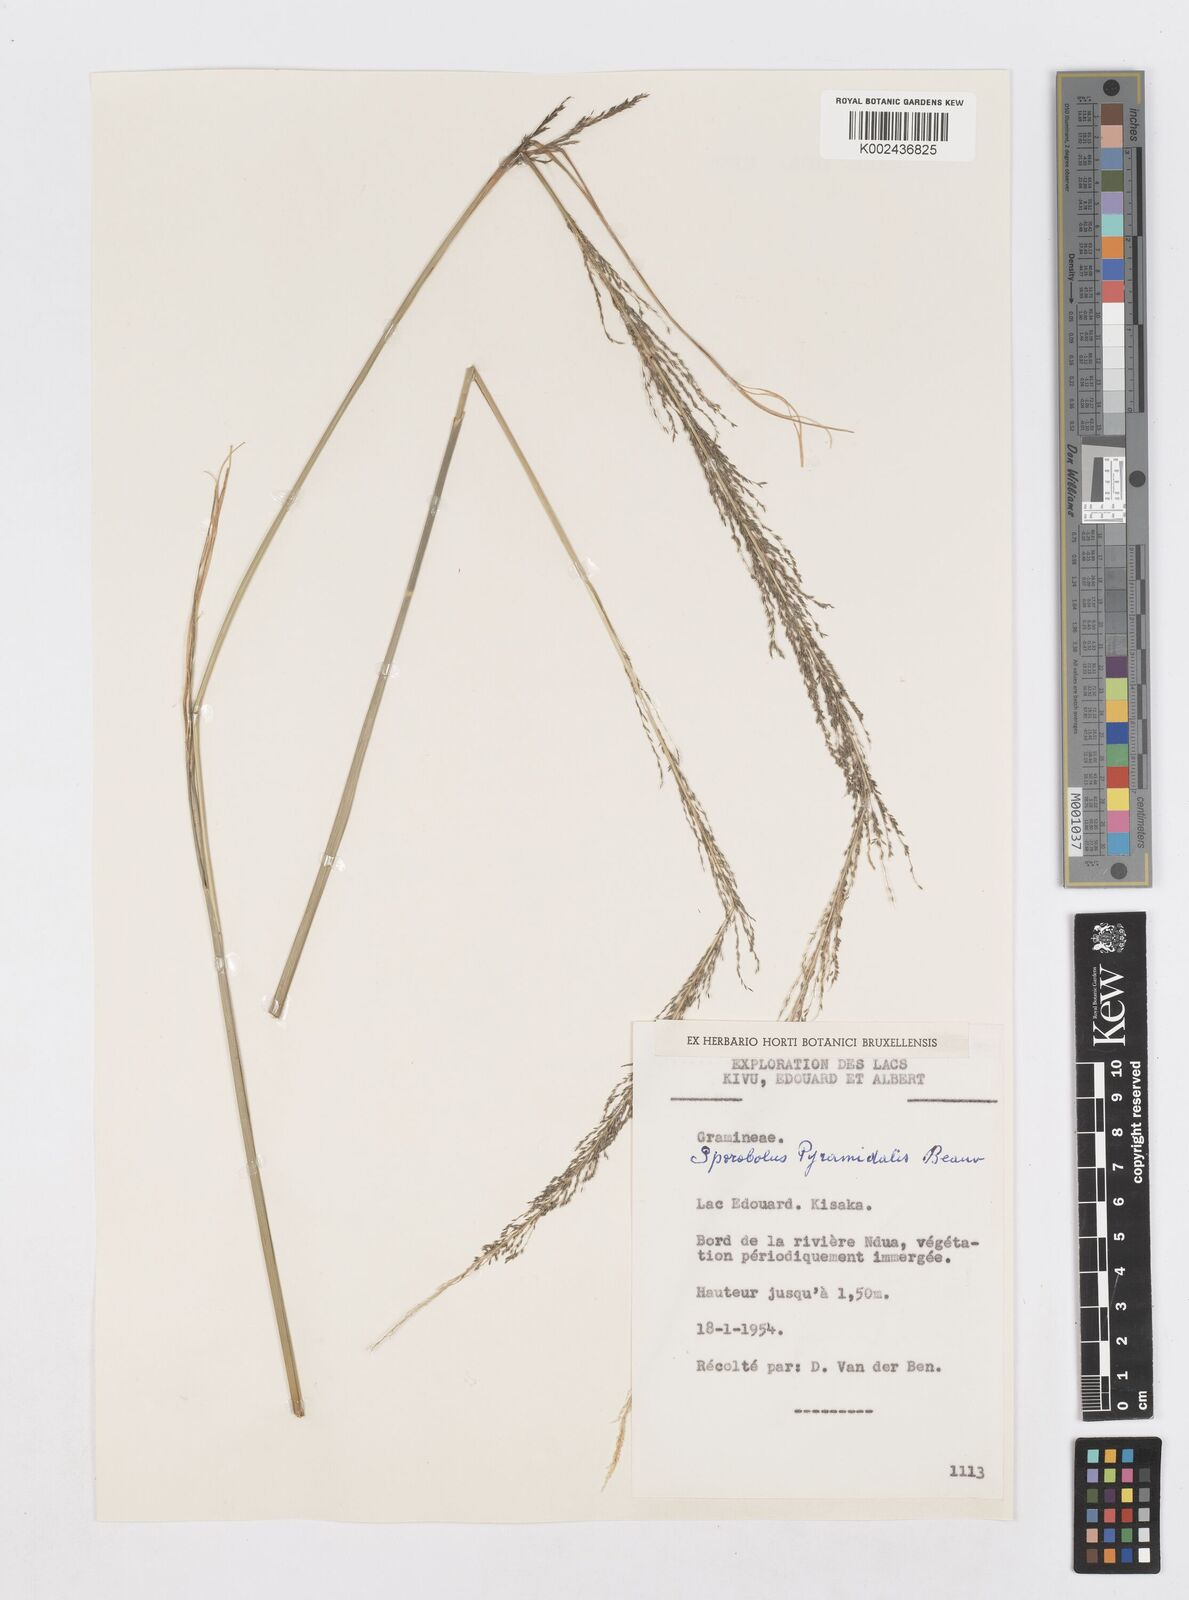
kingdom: Plantae
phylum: Tracheophyta
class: Liliopsida
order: Poales
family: Poaceae
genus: Sporobolus
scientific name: Sporobolus pyramidalis
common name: West indian dropseed
